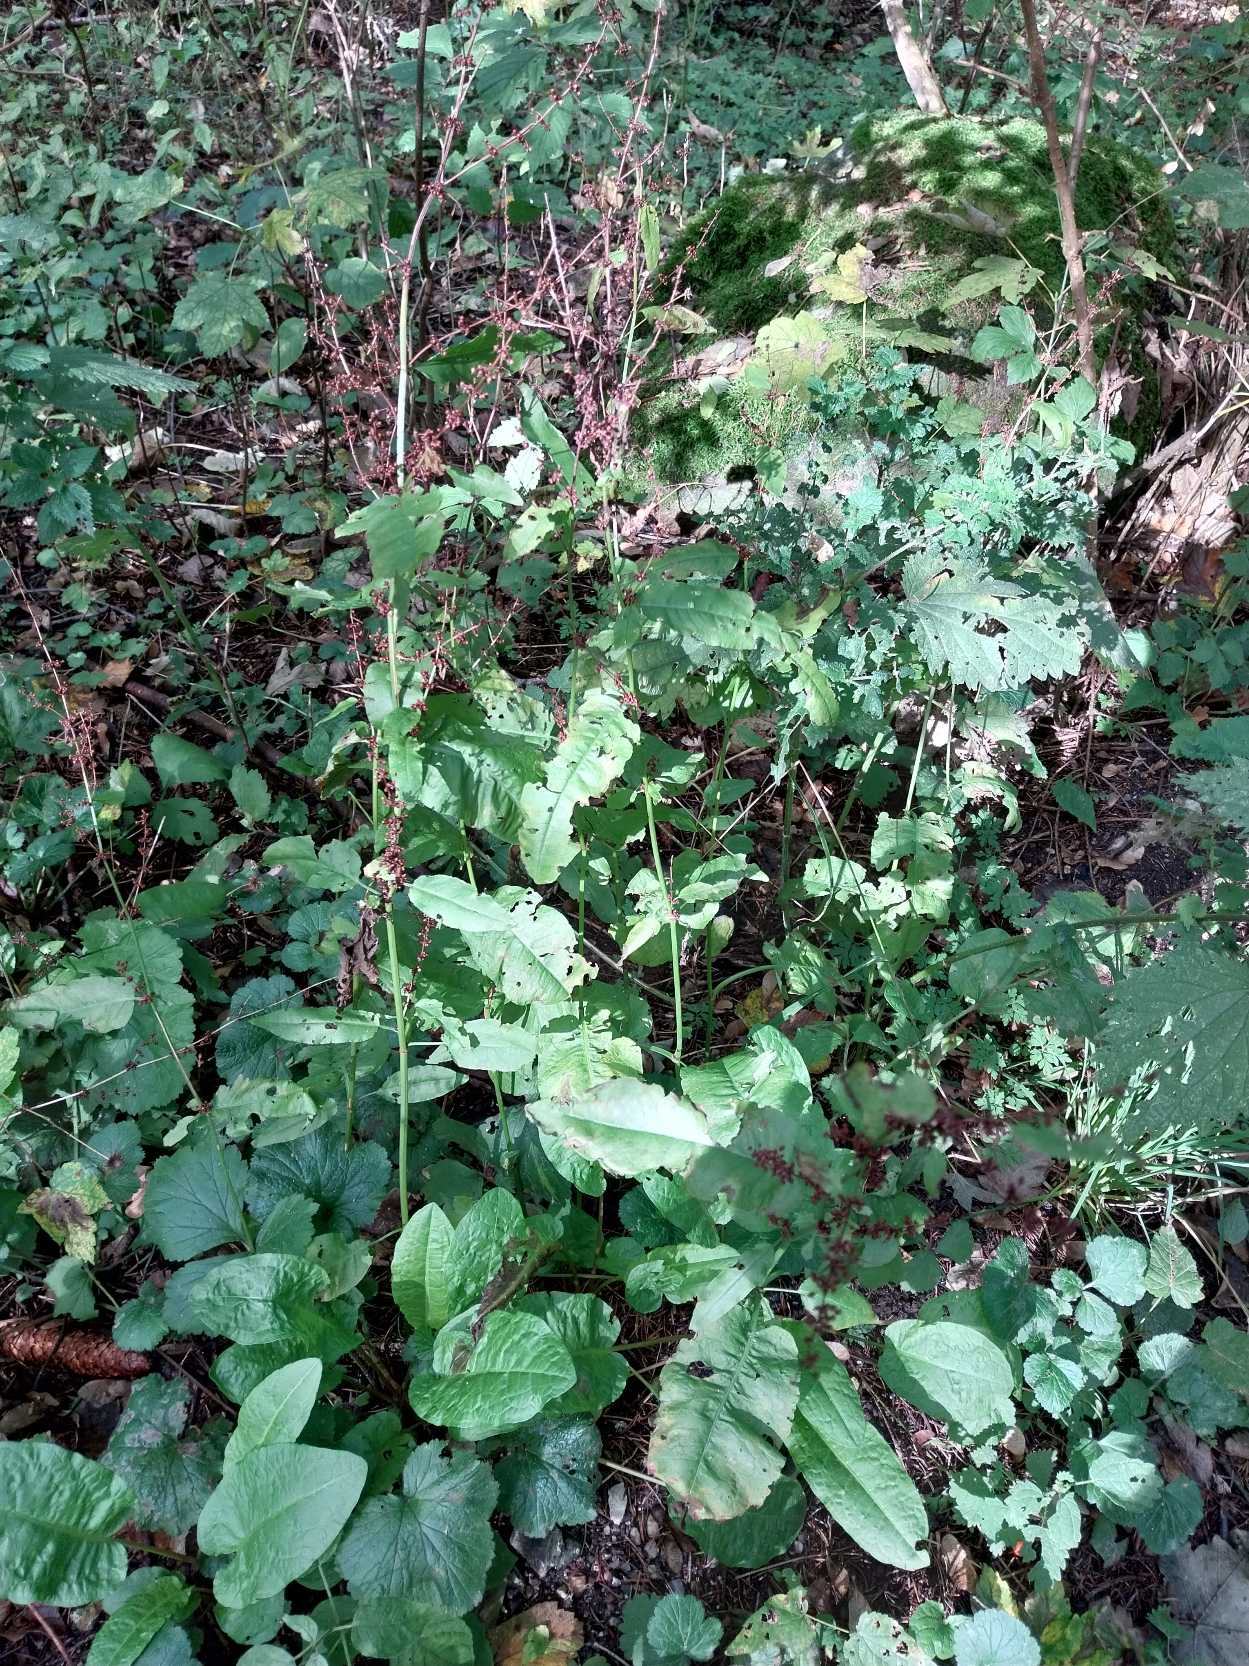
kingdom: Plantae
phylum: Tracheophyta
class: Magnoliopsida
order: Caryophyllales
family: Polygonaceae
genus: Rumex
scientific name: Rumex sanguineus
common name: Skov-skræppe
